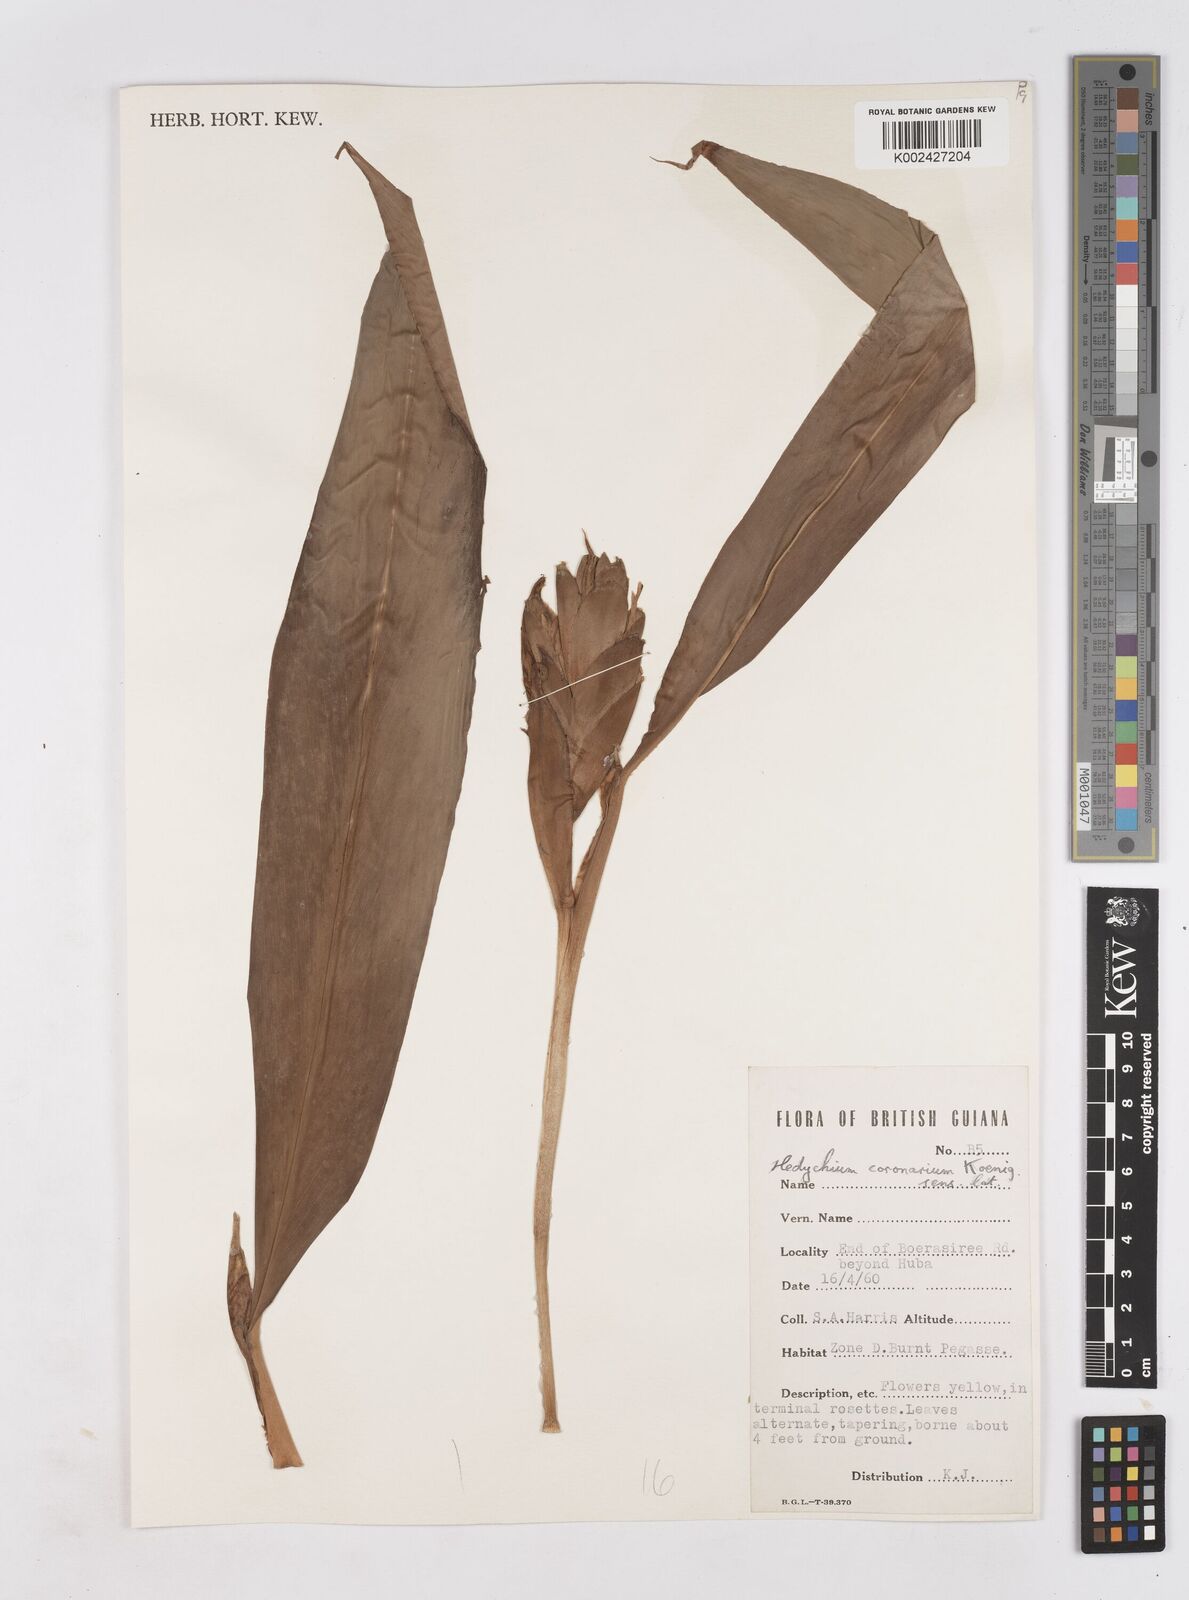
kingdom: Plantae
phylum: Tracheophyta
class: Liliopsida
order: Zingiberales
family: Zingiberaceae
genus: Hedychium
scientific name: Hedychium coronarium
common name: White garland-lily
